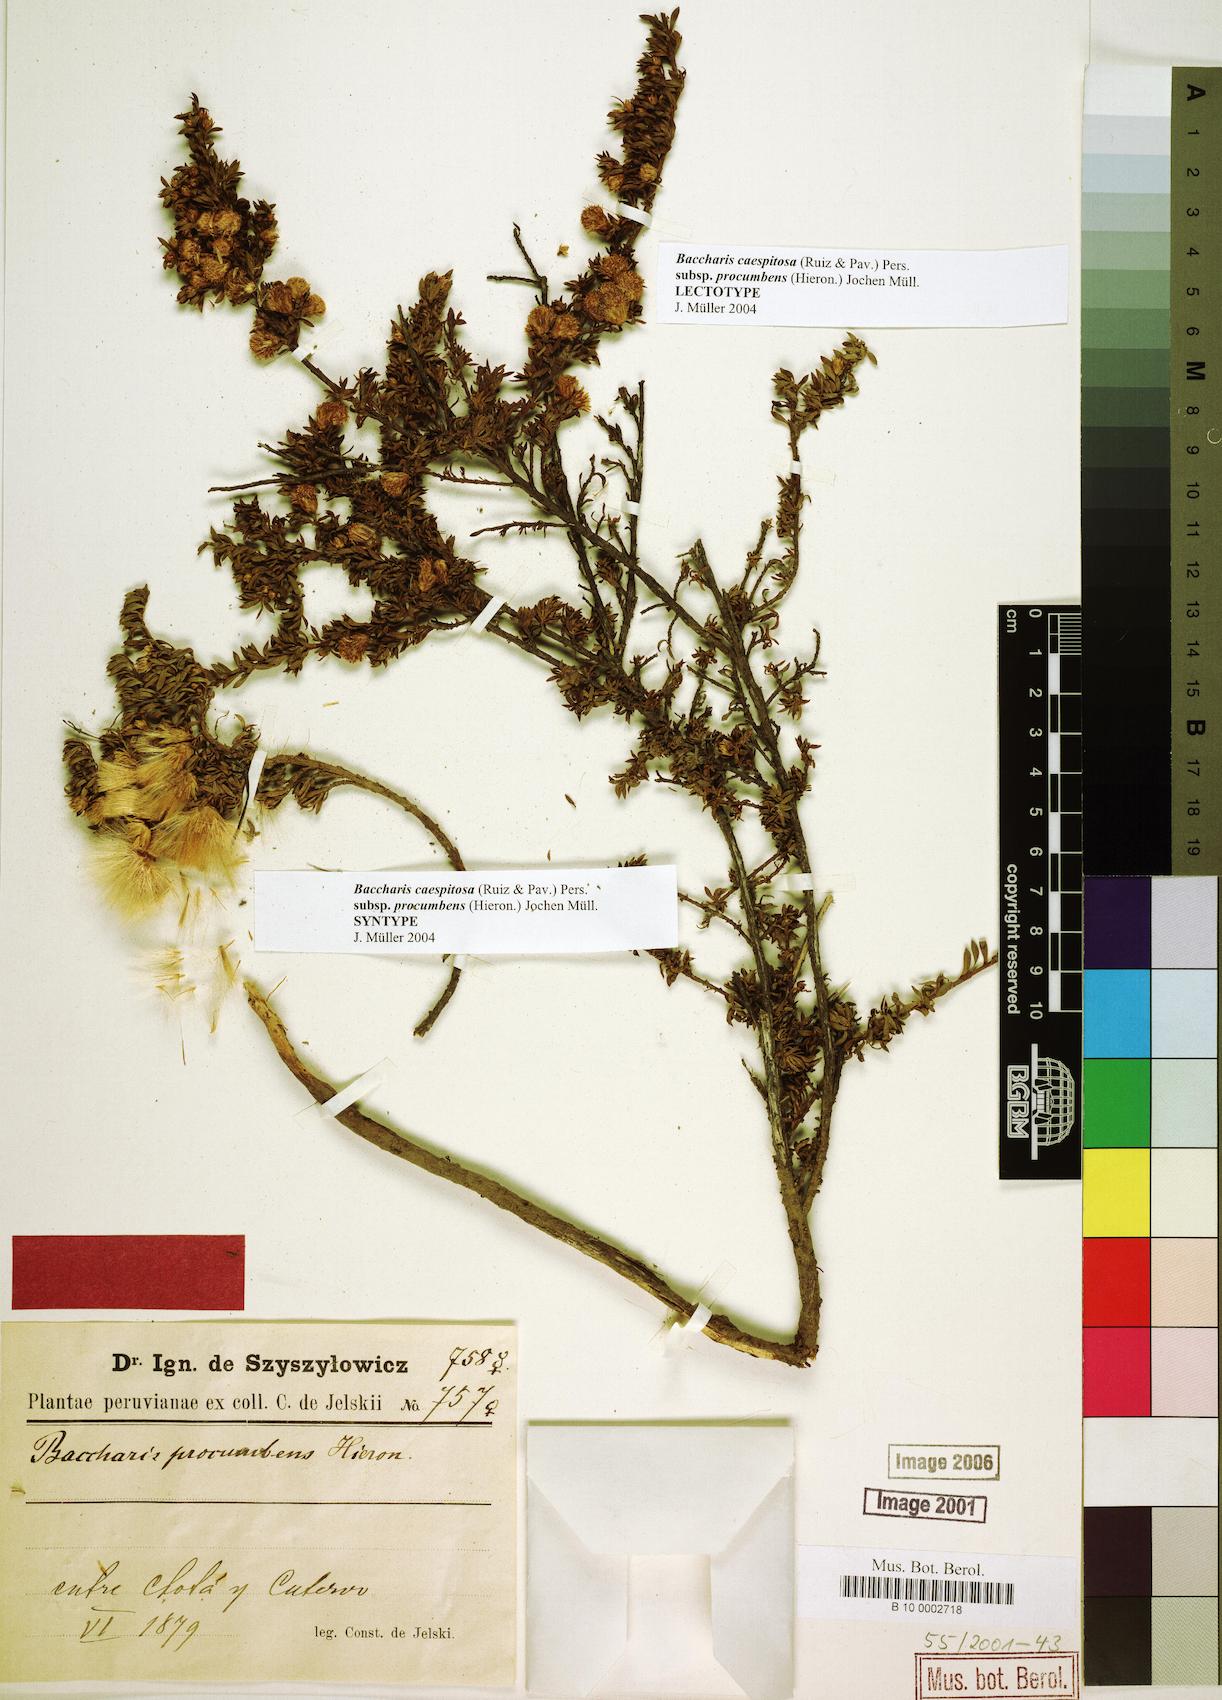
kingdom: Plantae
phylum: Tracheophyta
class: Magnoliopsida
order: Asterales
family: Asteraceae
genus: Baccharis
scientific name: Baccharis caespitosa
